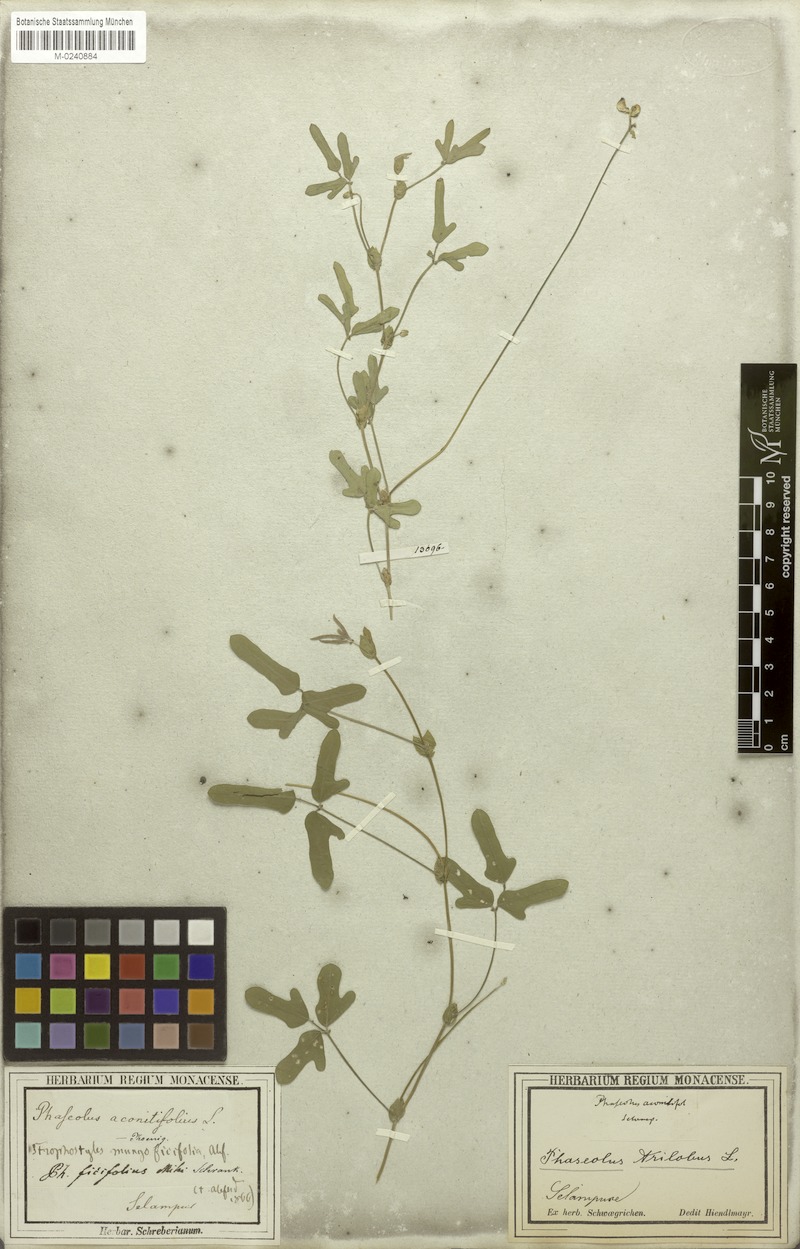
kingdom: Plantae
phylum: Tracheophyta
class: Magnoliopsida
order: Fabales
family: Fabaceae
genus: Vigna
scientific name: Vigna trilobata
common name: Jungli-bean
